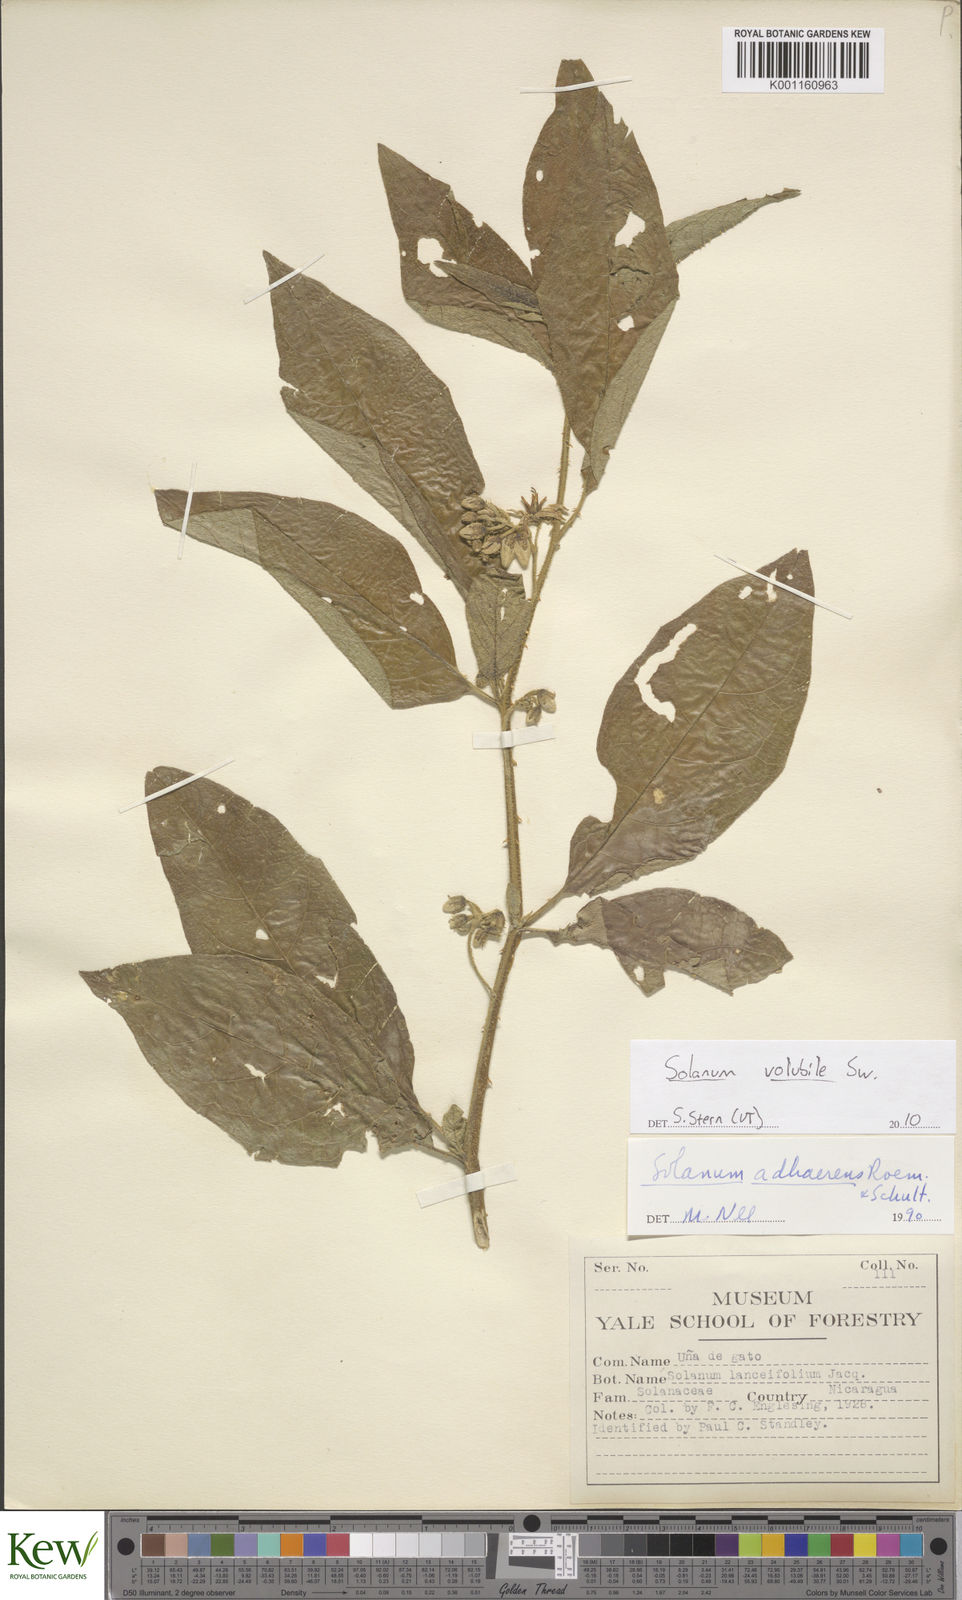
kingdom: Plantae
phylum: Tracheophyta
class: Magnoliopsida
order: Solanales
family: Solanaceae
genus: Solanum
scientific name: Solanum volubile
